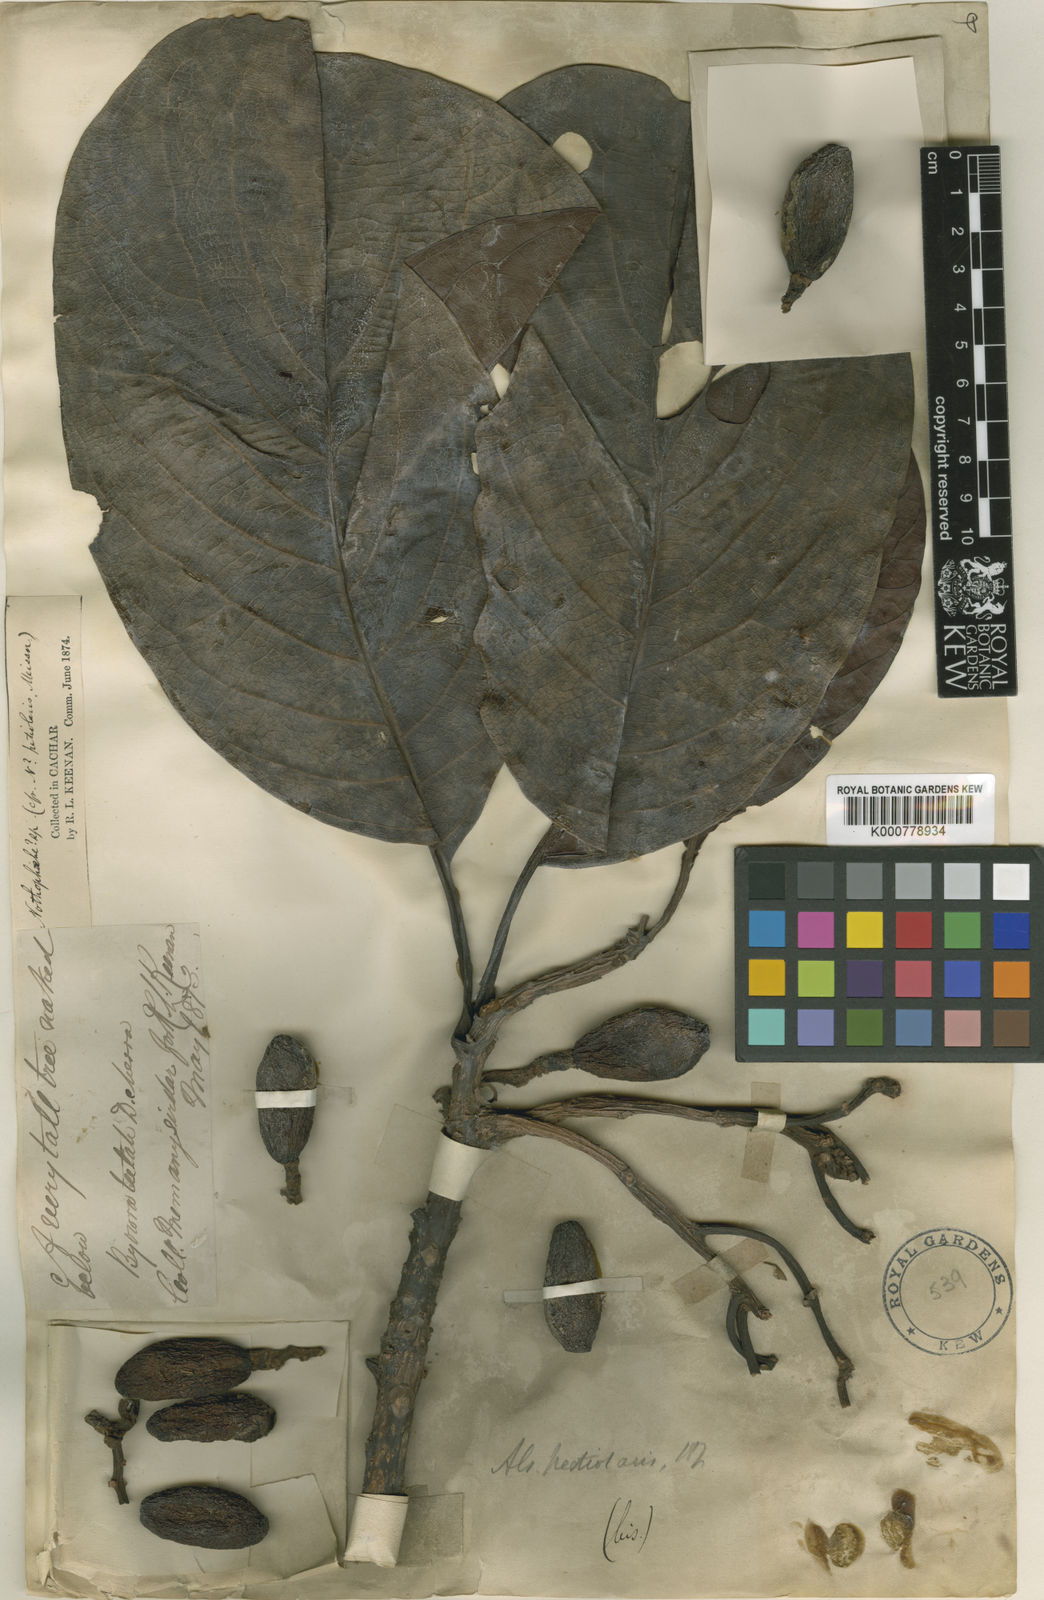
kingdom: Plantae
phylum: Tracheophyta
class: Magnoliopsida
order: Laurales
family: Lauraceae
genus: Alseodaphnopsis
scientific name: Alseodaphnopsis petiolaris
